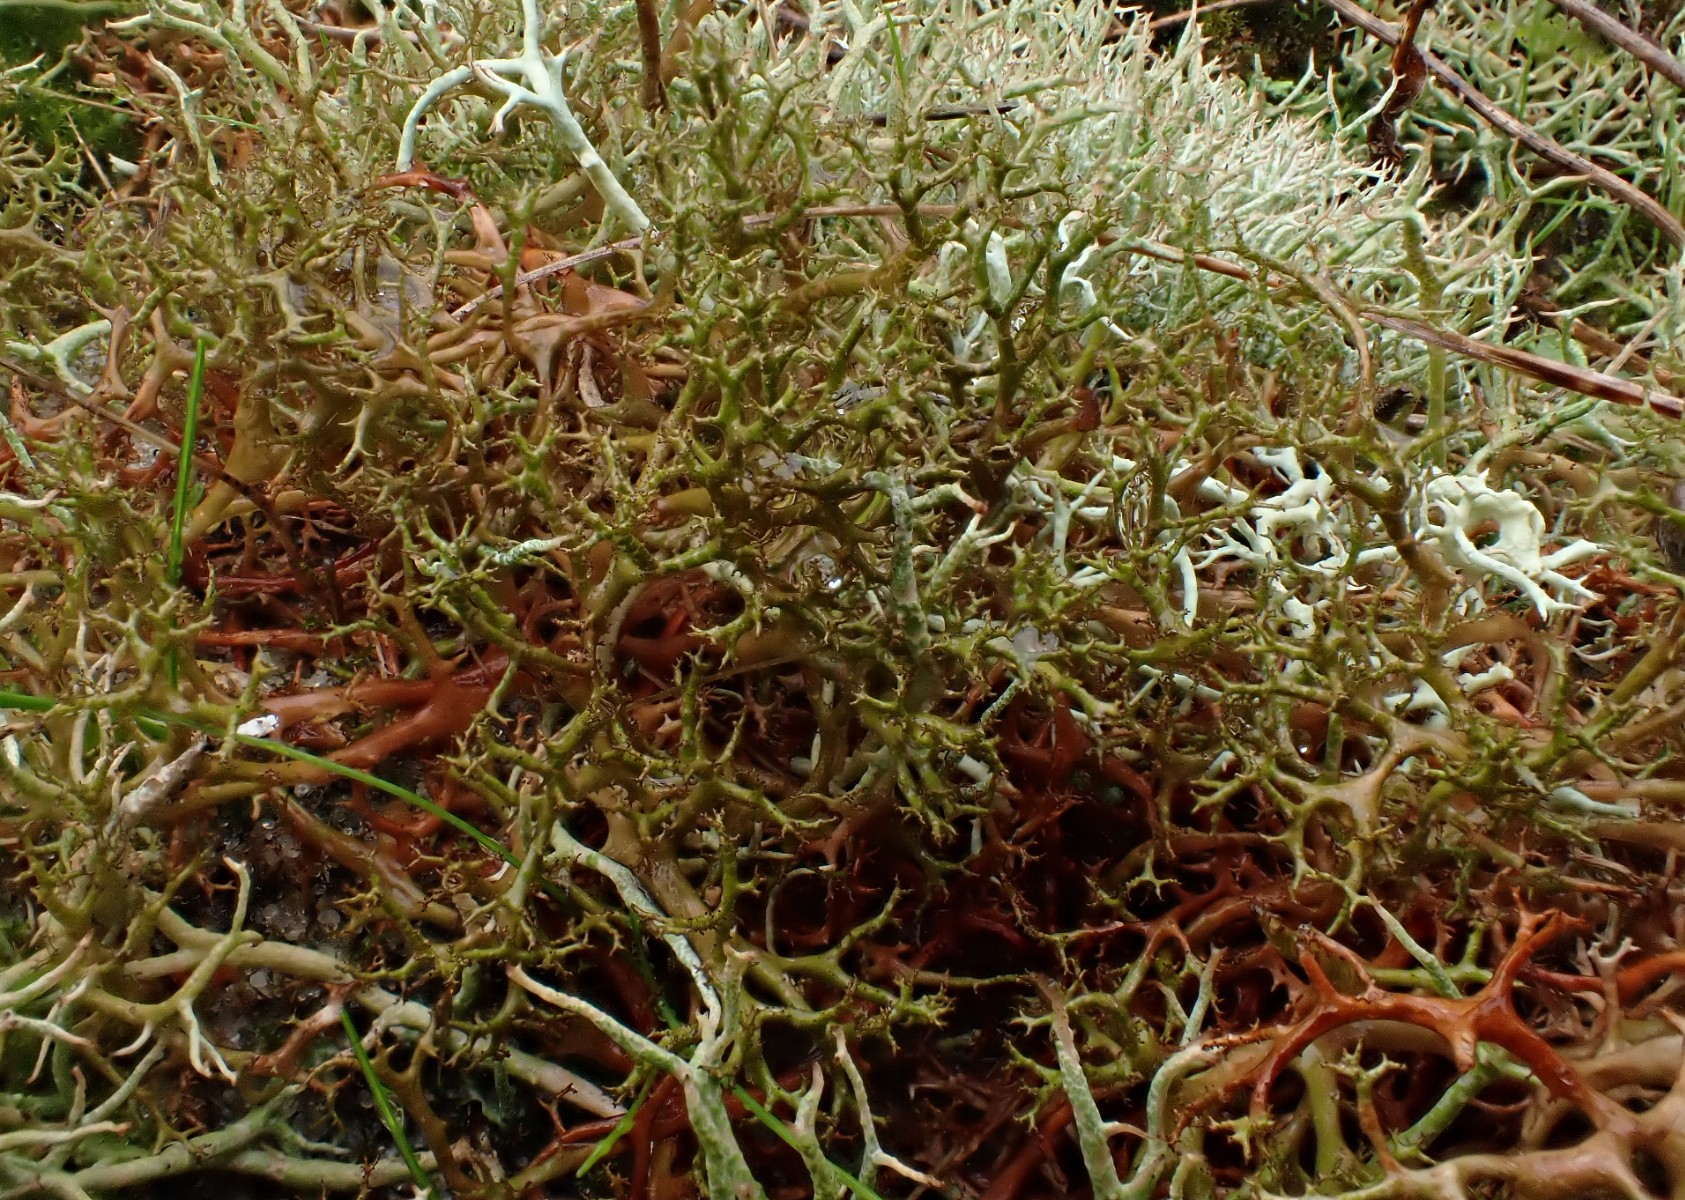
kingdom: Fungi
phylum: Ascomycota
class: Lecanoromycetes
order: Lecanorales
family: Parmeliaceae
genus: Cetraria
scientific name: Cetraria aculeata
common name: grubet tjørnelav
